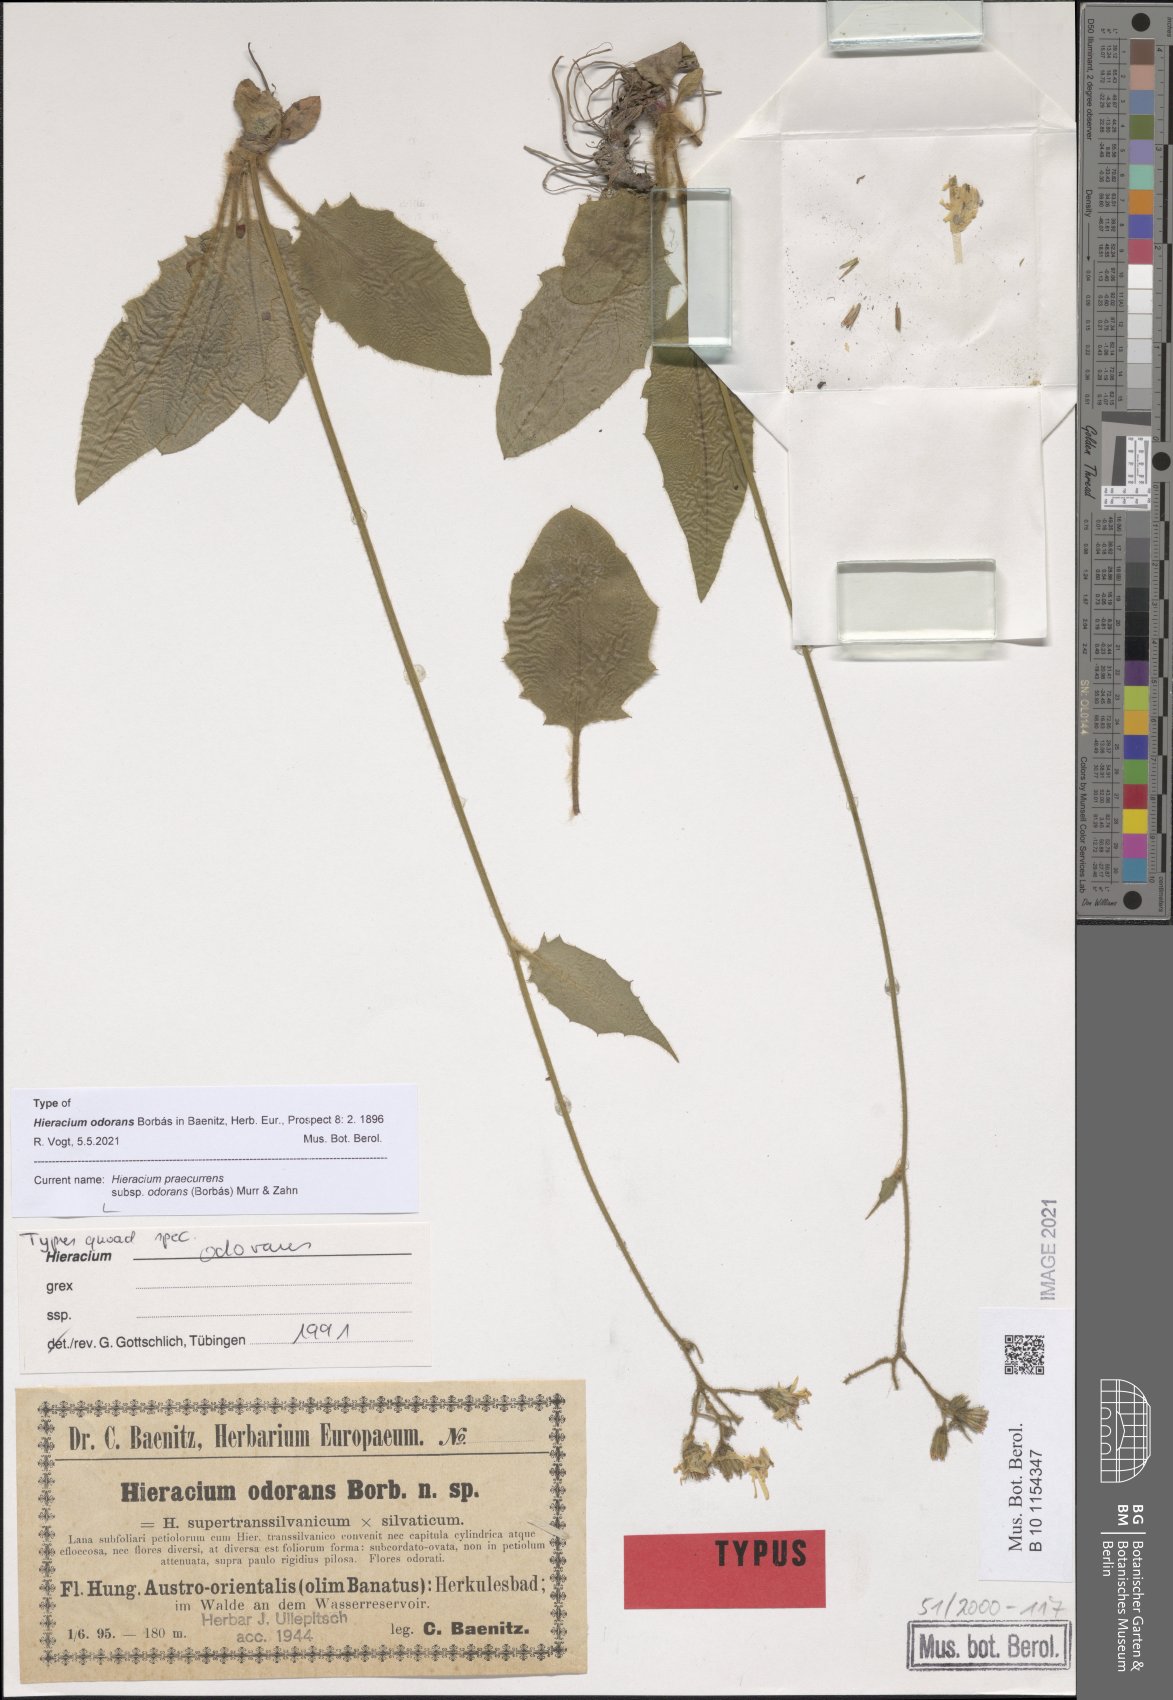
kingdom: Plantae
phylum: Tracheophyta
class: Magnoliopsida
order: Asterales
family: Asteraceae
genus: Hieracium
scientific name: Hieracium rotundatum
